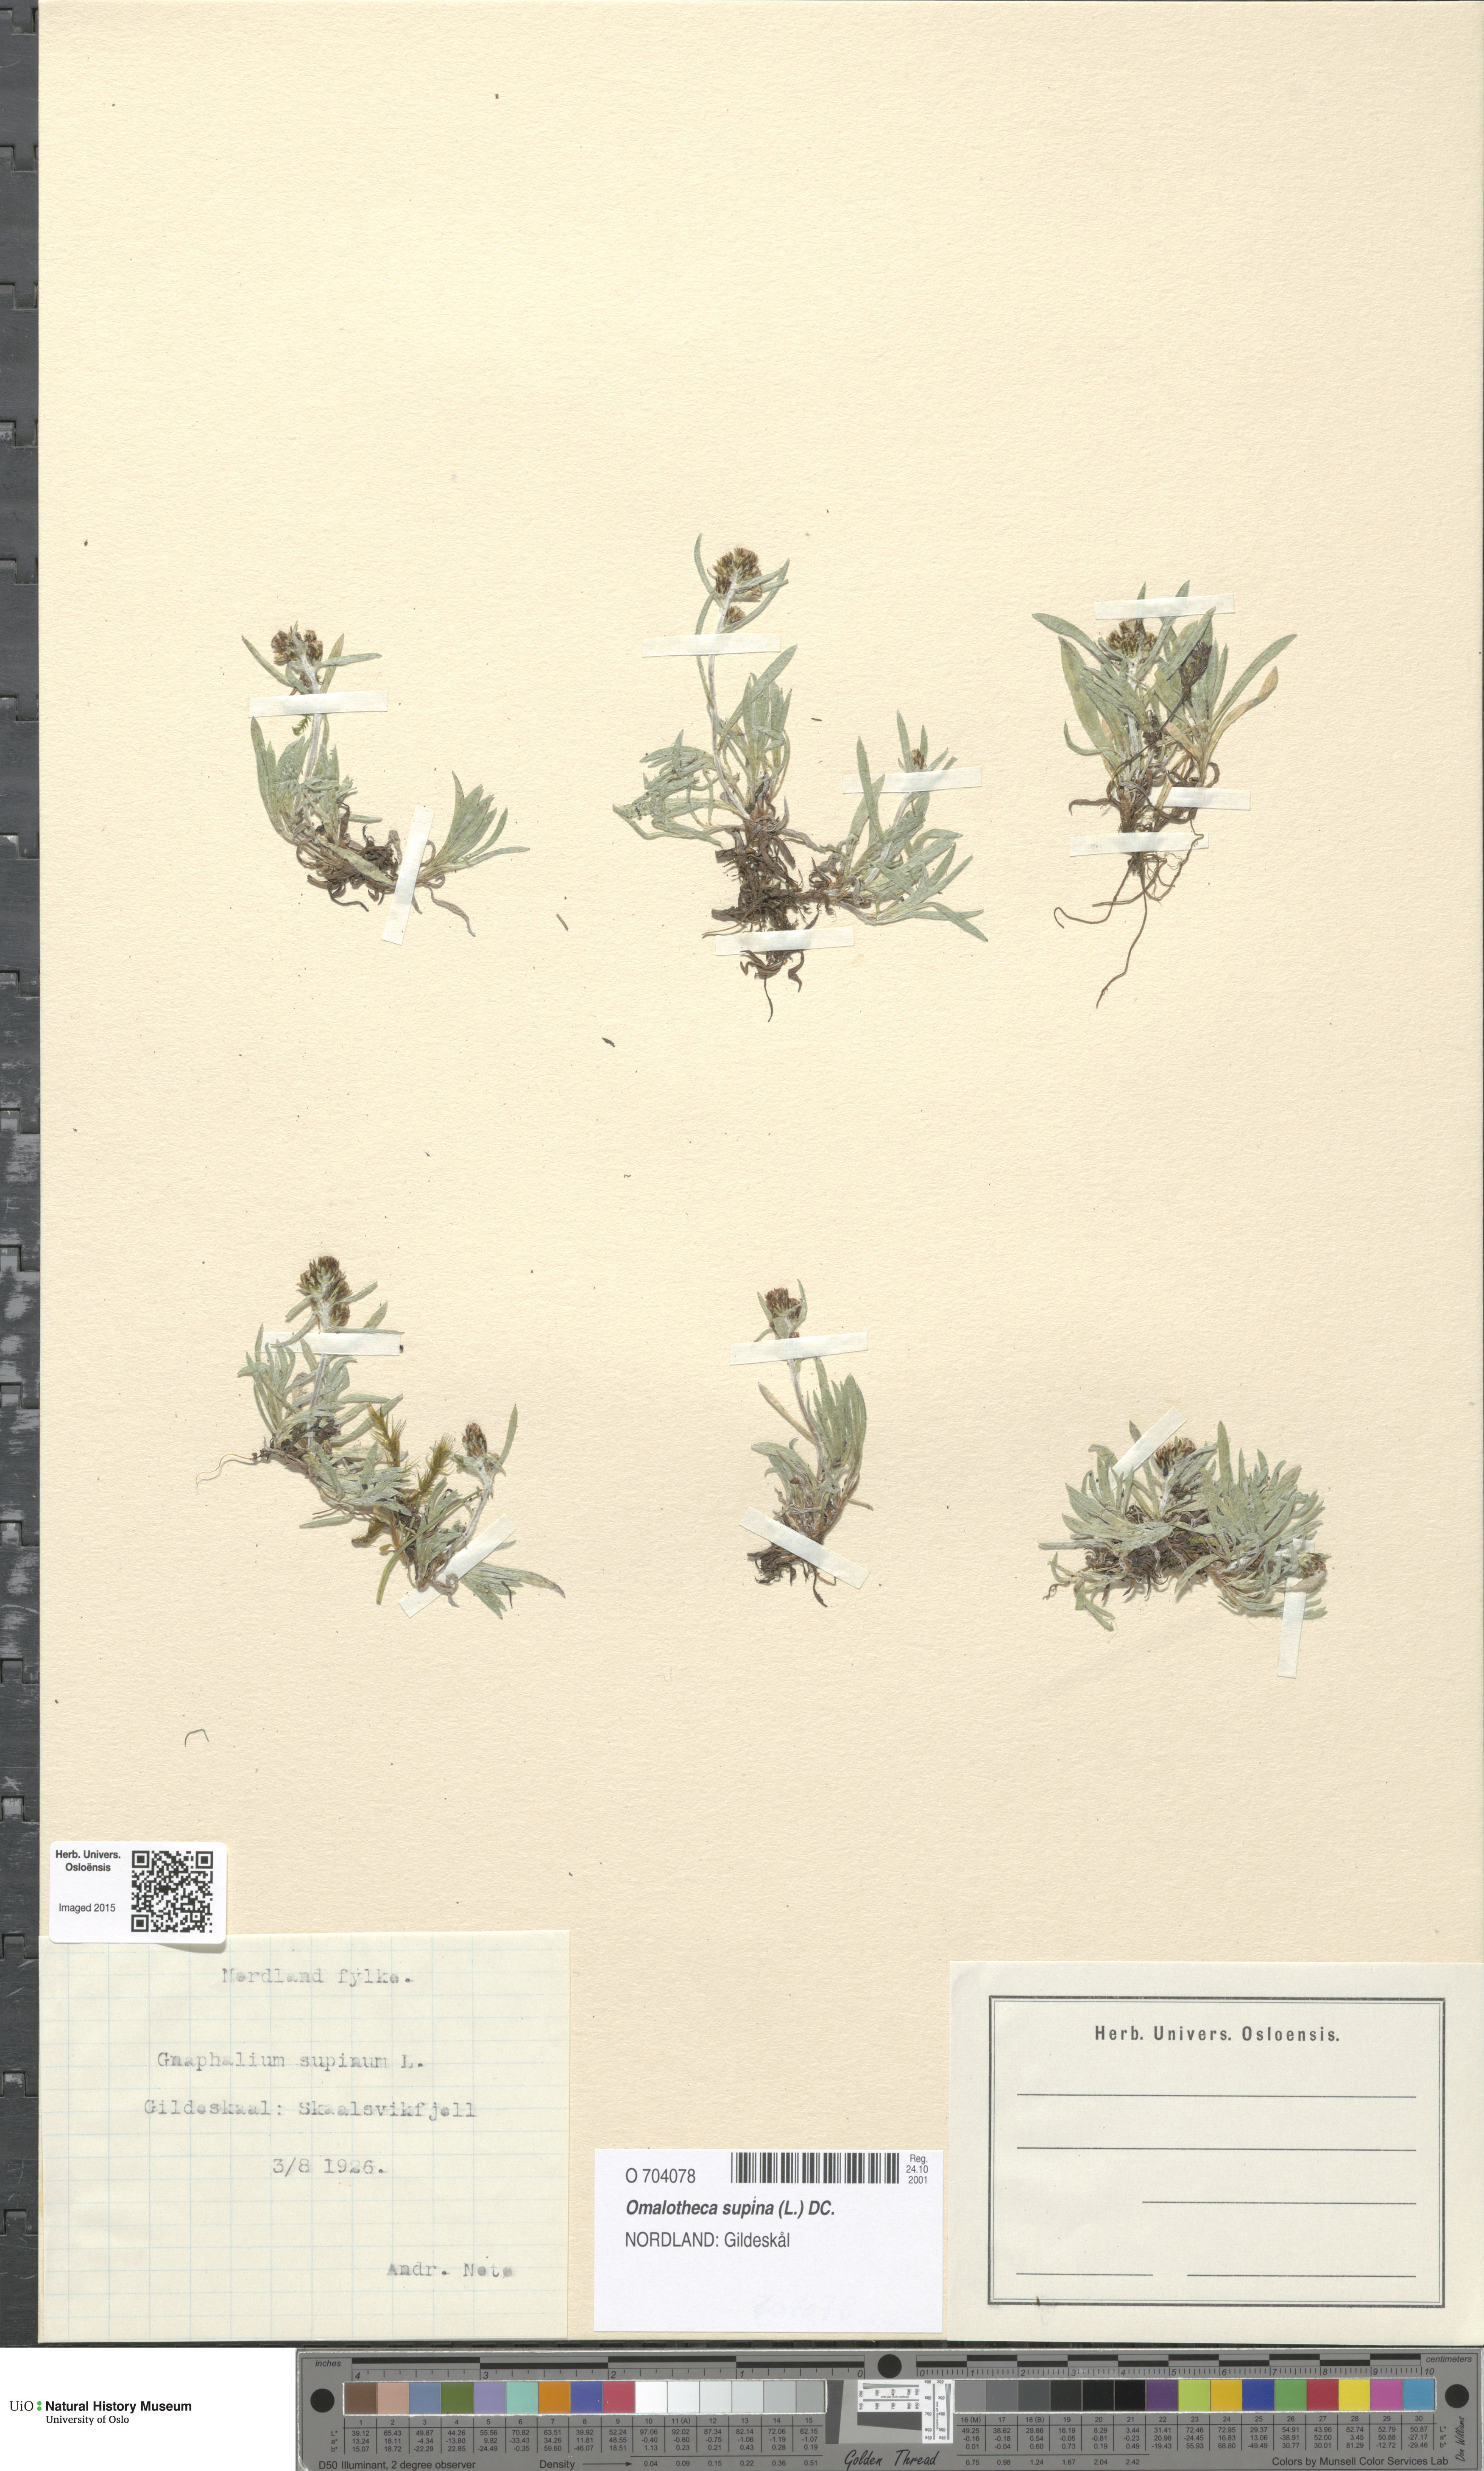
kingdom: Plantae
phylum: Tracheophyta
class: Magnoliopsida
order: Asterales
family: Asteraceae
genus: Omalotheca
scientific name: Omalotheca supina
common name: Alpine arctic-cudweed
